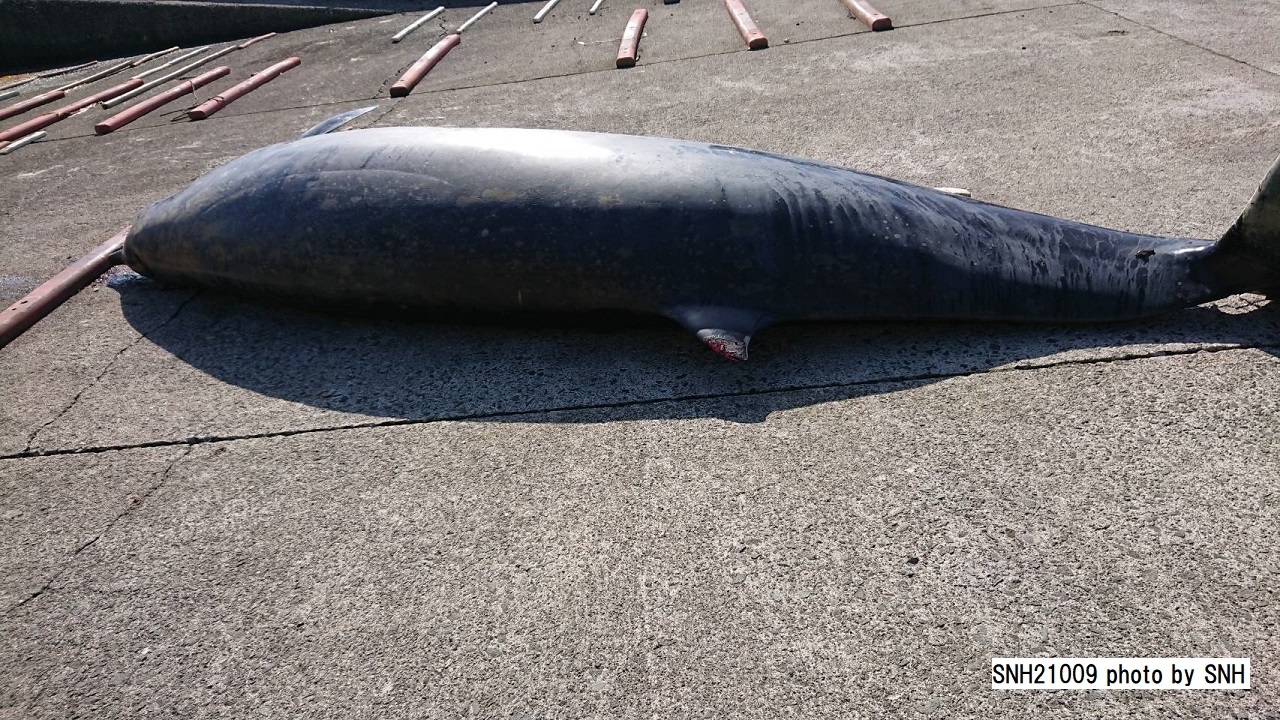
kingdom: Animalia
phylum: Chordata
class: Mammalia
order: Cetacea
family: Hyperoodontidae
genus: Mesoplodon
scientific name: Mesoplodon stejnegeri
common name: Stejneger's beaked whale
